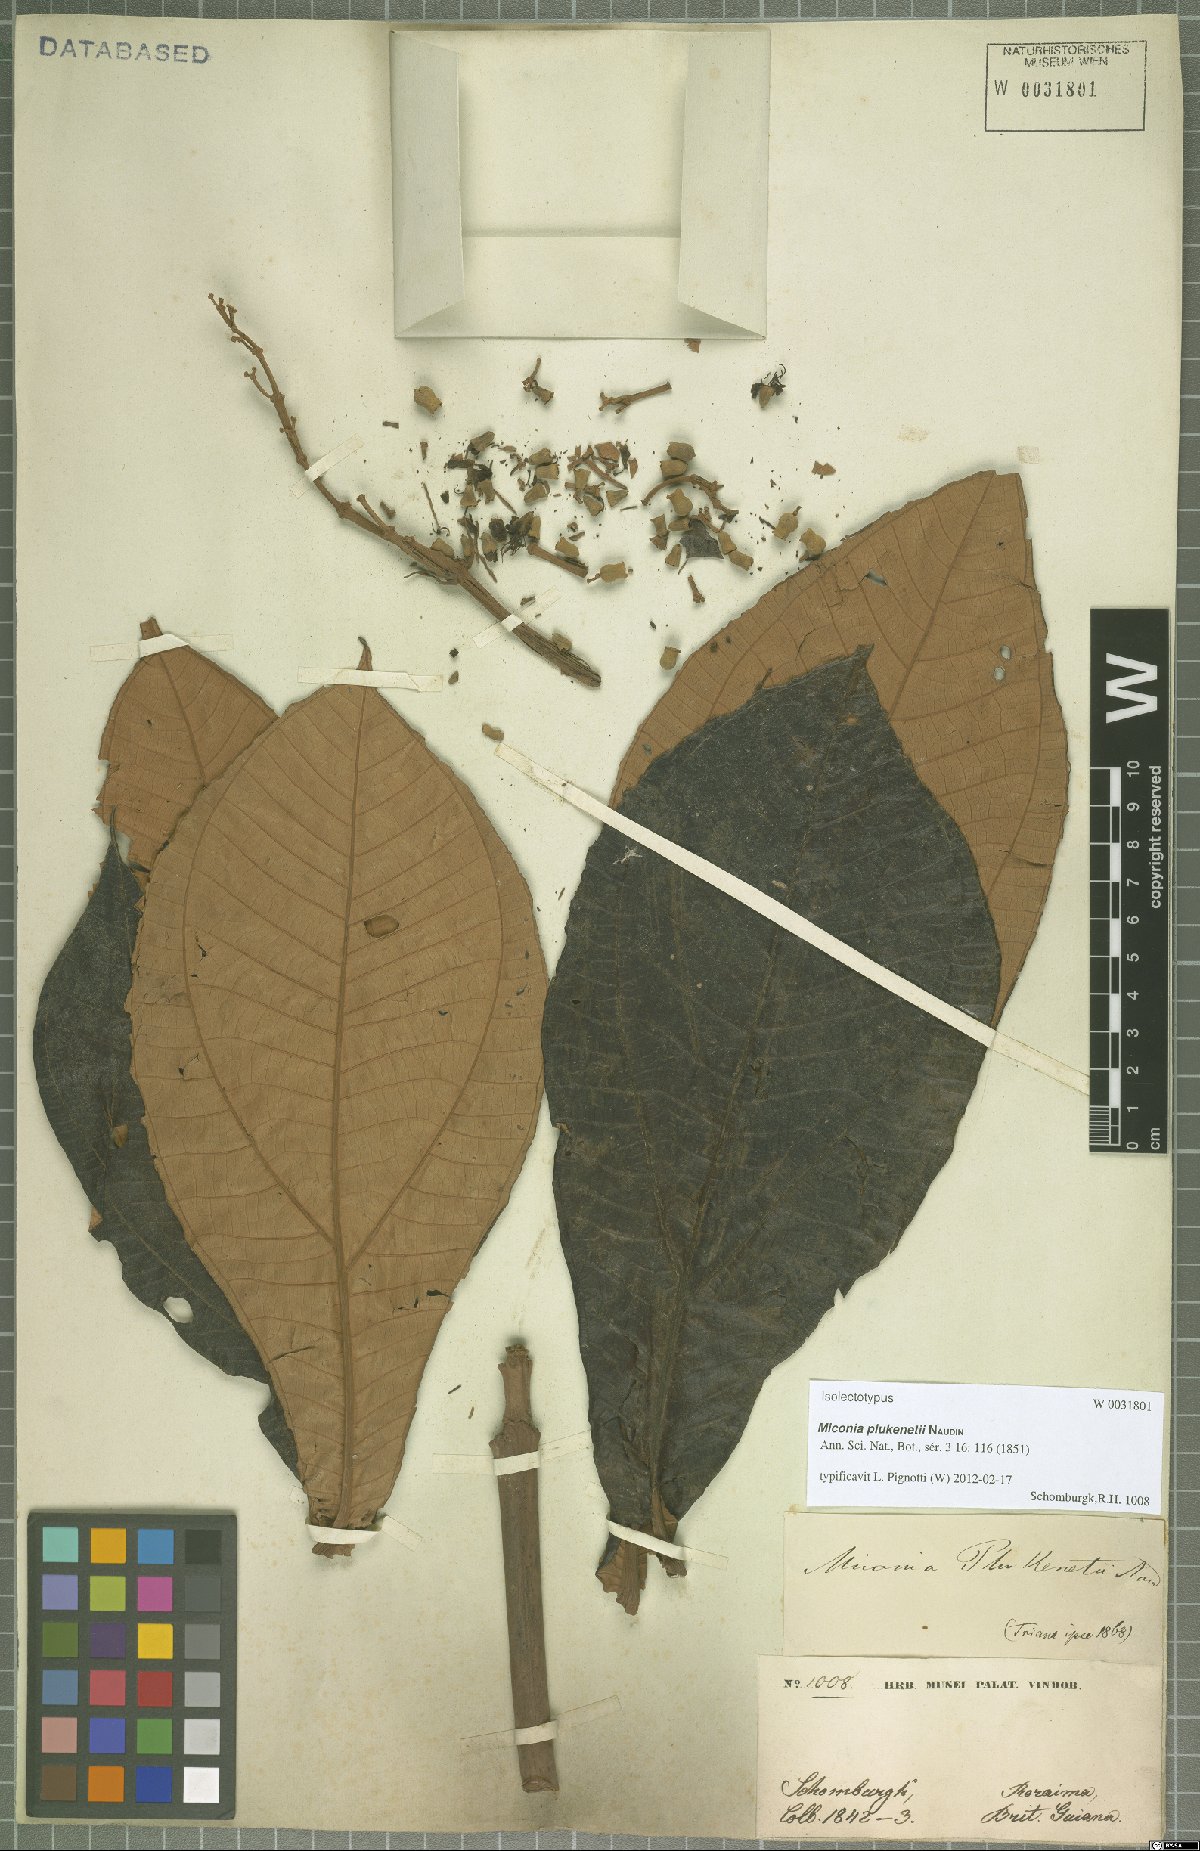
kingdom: Plantae
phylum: Tracheophyta
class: Magnoliopsida
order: Myrtales
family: Melastomataceae
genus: Miconia
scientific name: Miconia plukenetii
